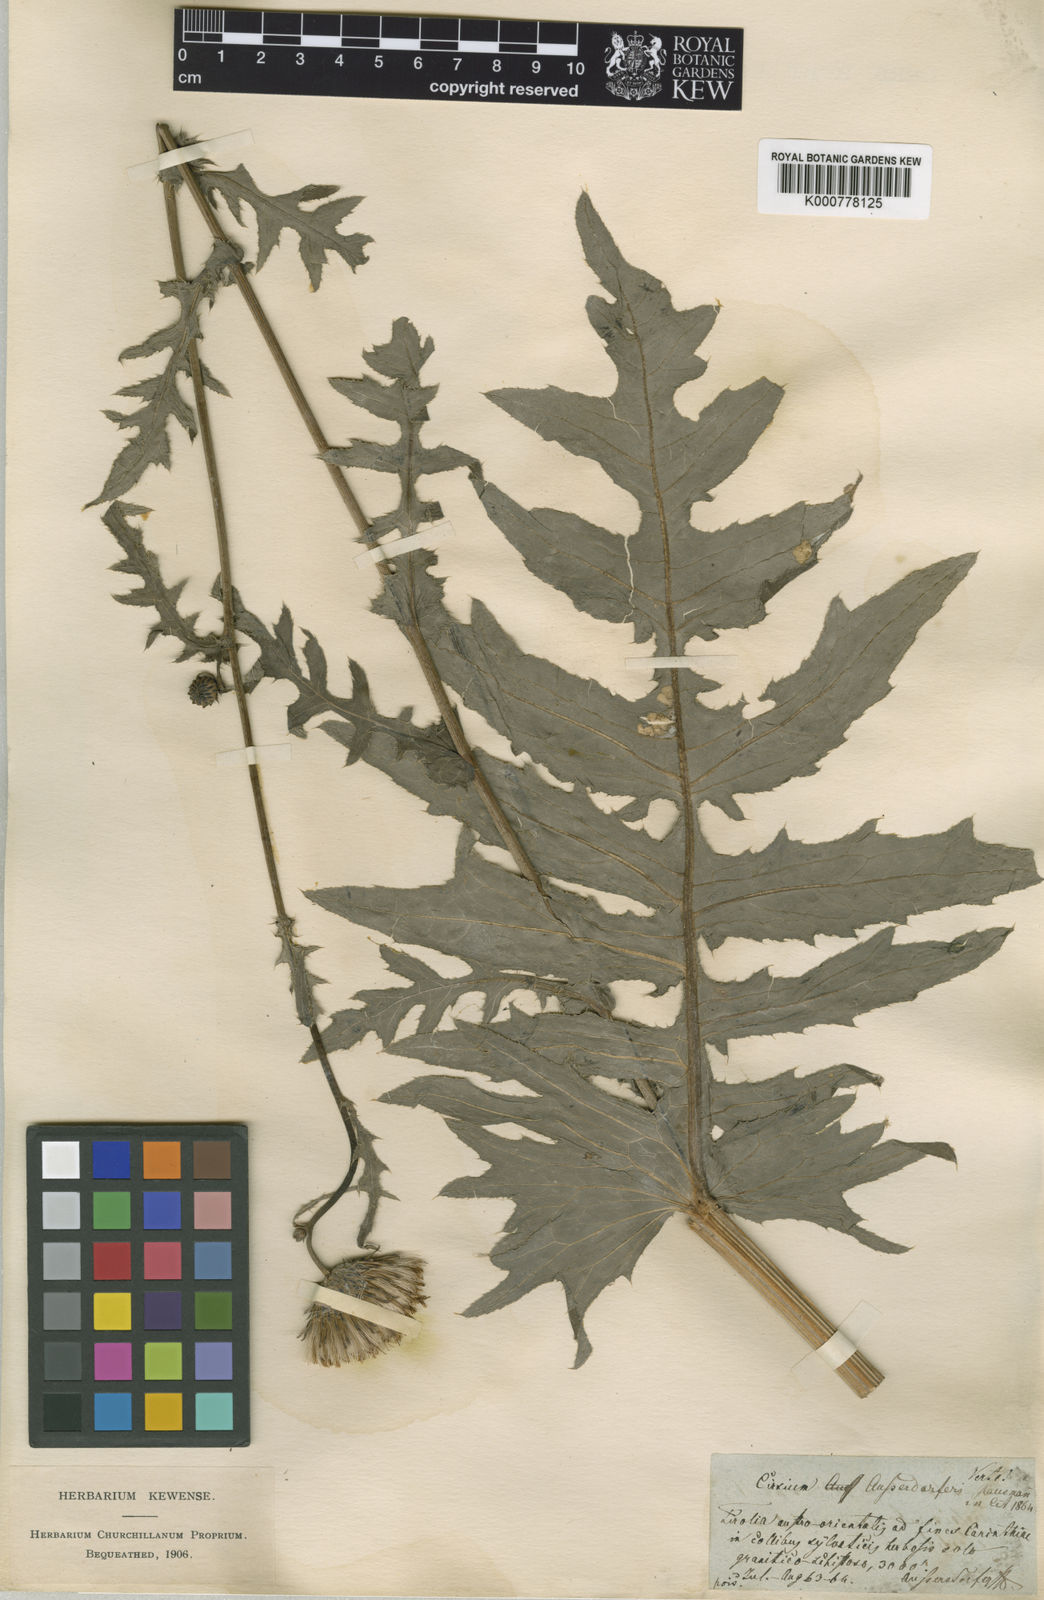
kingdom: Plantae
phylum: Tracheophyta
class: Magnoliopsida
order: Asterales
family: Asteraceae
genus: Cirsium
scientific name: Cirsium palustre
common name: Marsh thistle
